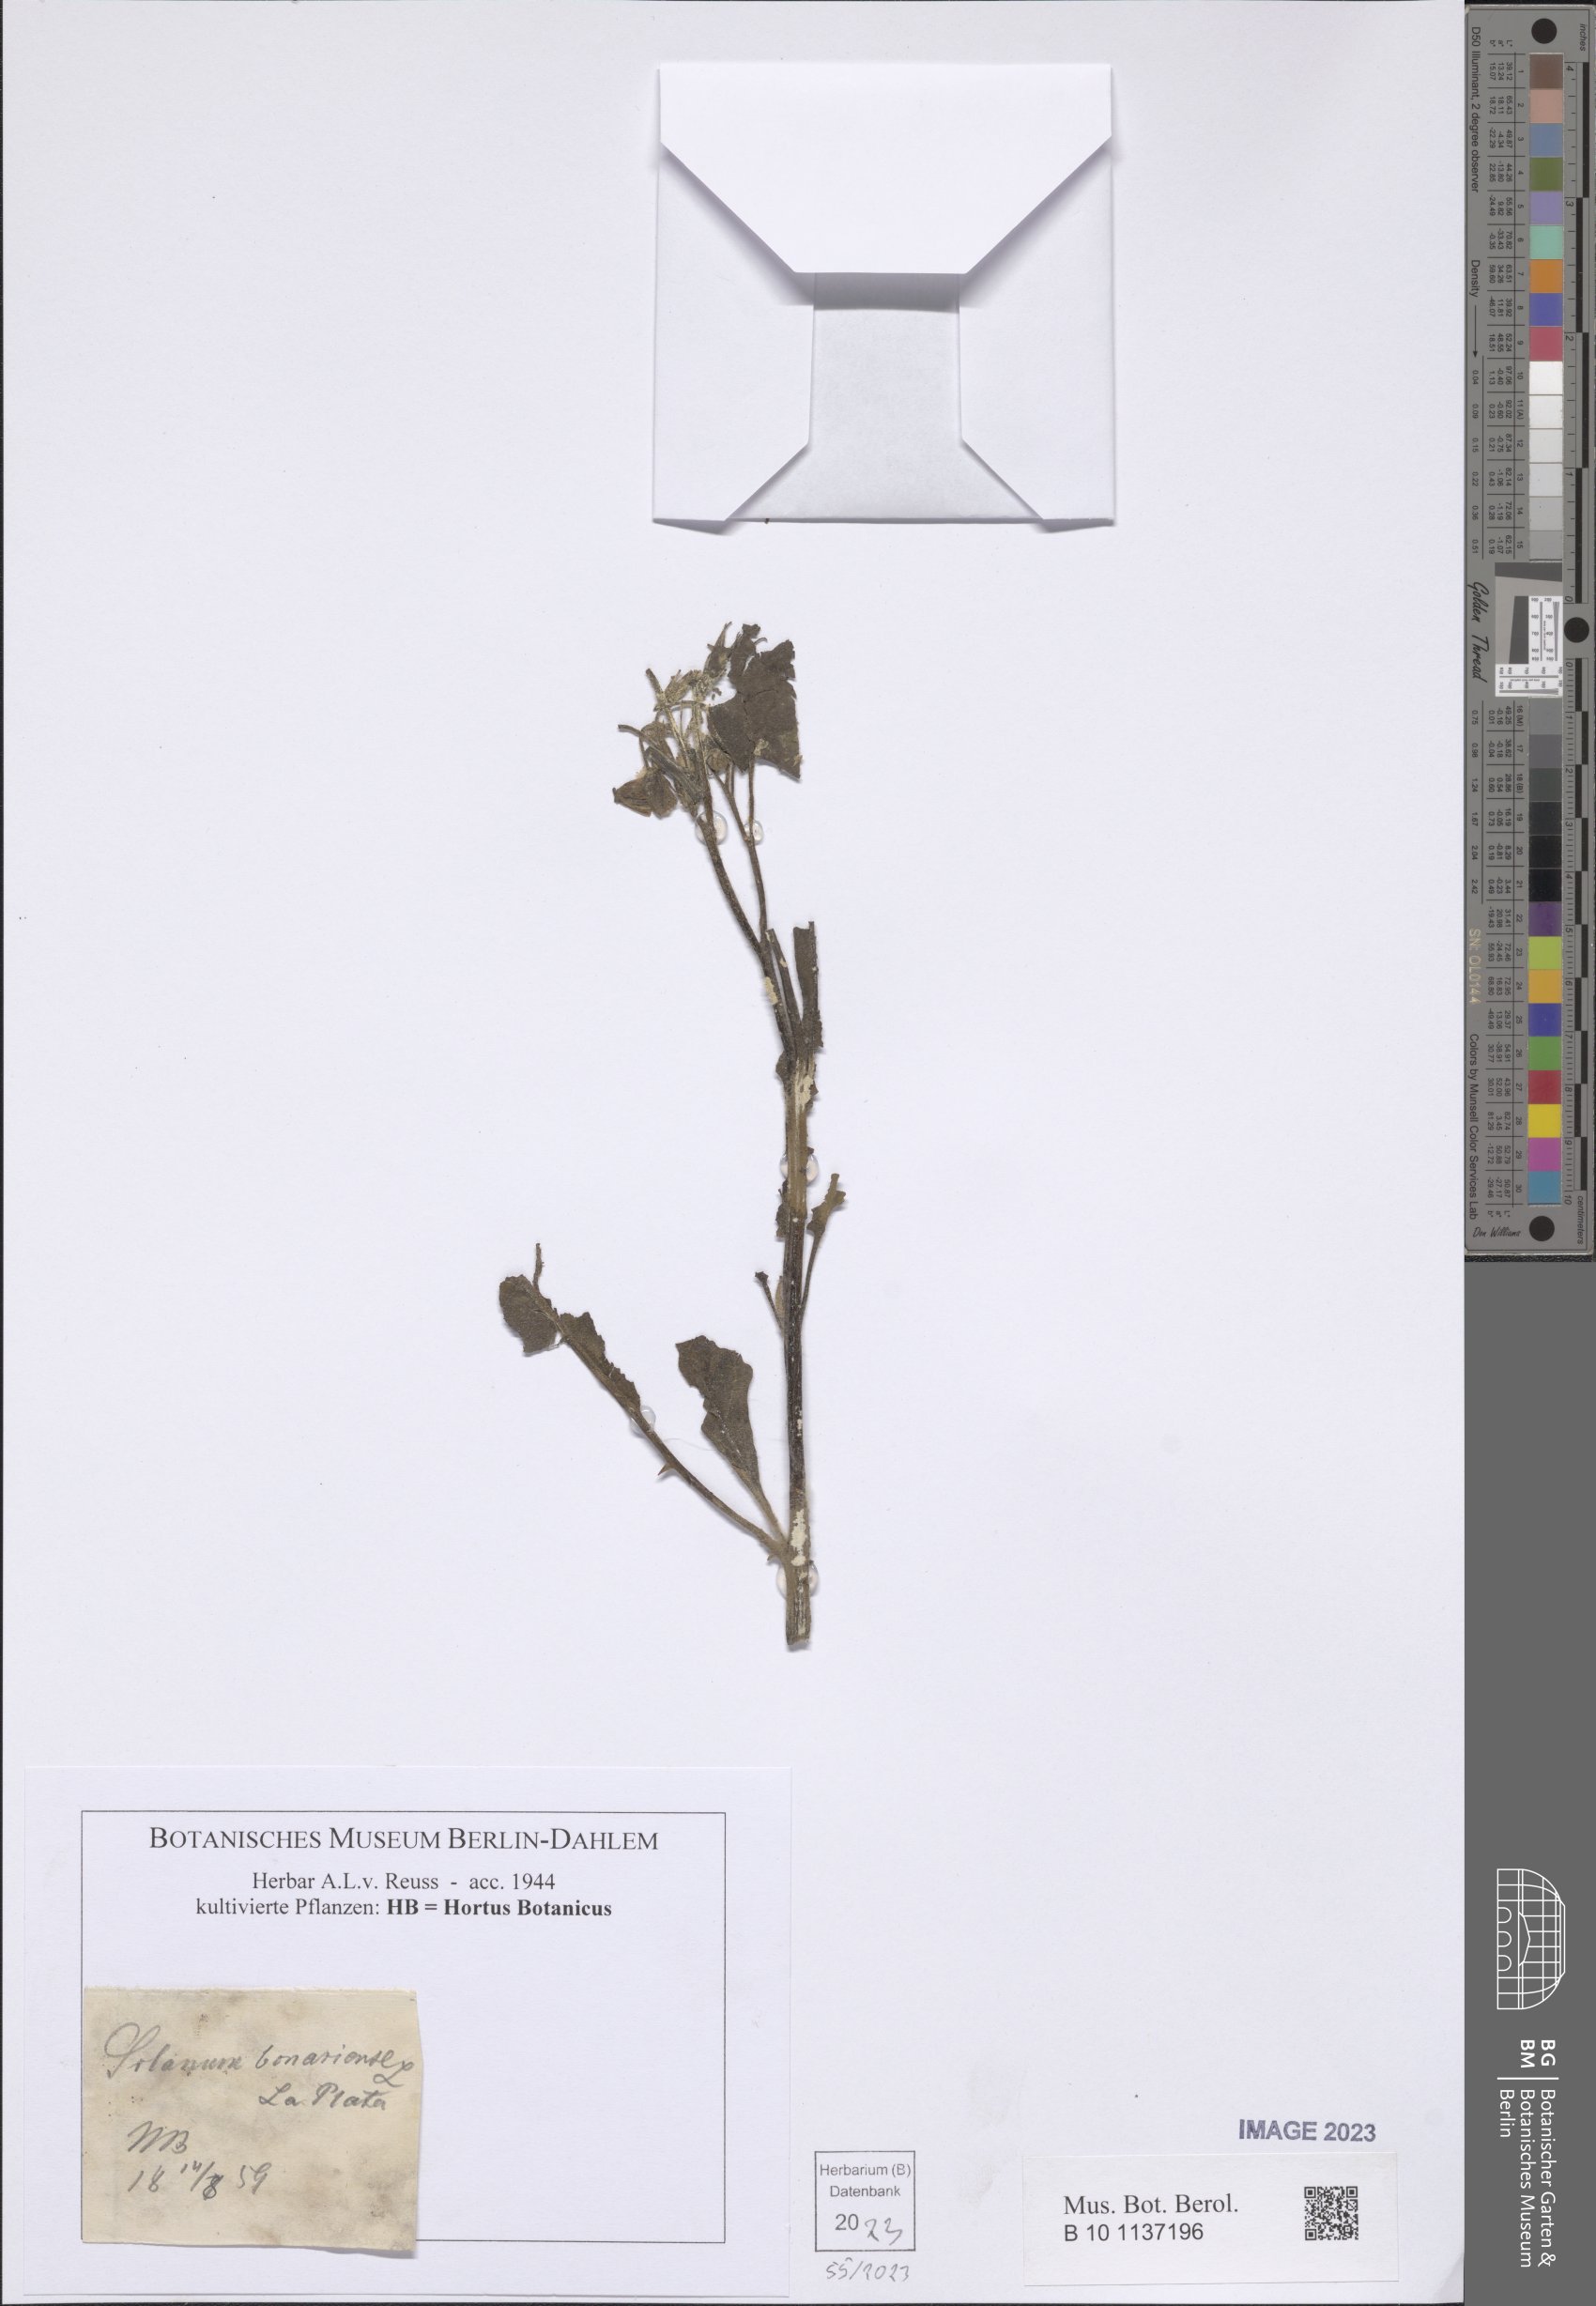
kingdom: Plantae
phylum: Tracheophyta
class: Magnoliopsida
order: Solanales
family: Solanaceae
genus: Solanum
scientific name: Solanum bonariense
